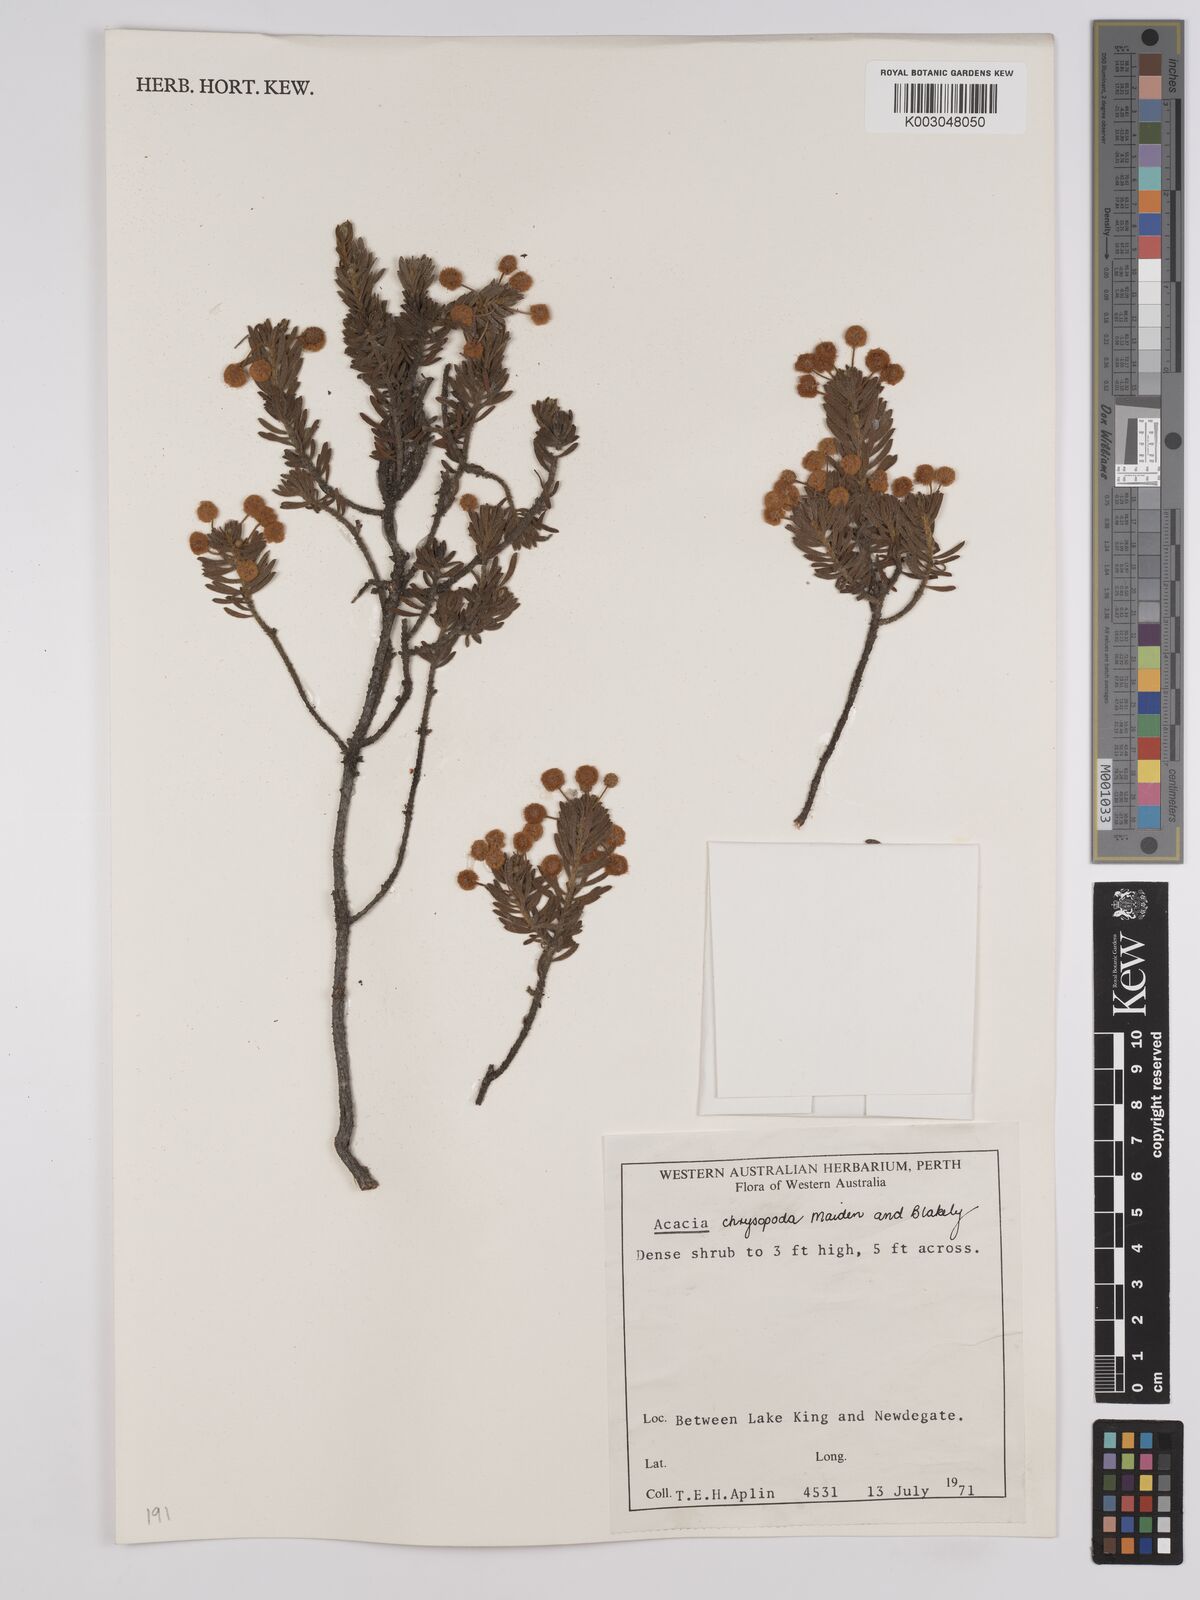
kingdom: Plantae
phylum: Tracheophyta
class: Magnoliopsida
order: Fabales
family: Fabaceae
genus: Acacia
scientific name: Acacia chrysopoda
